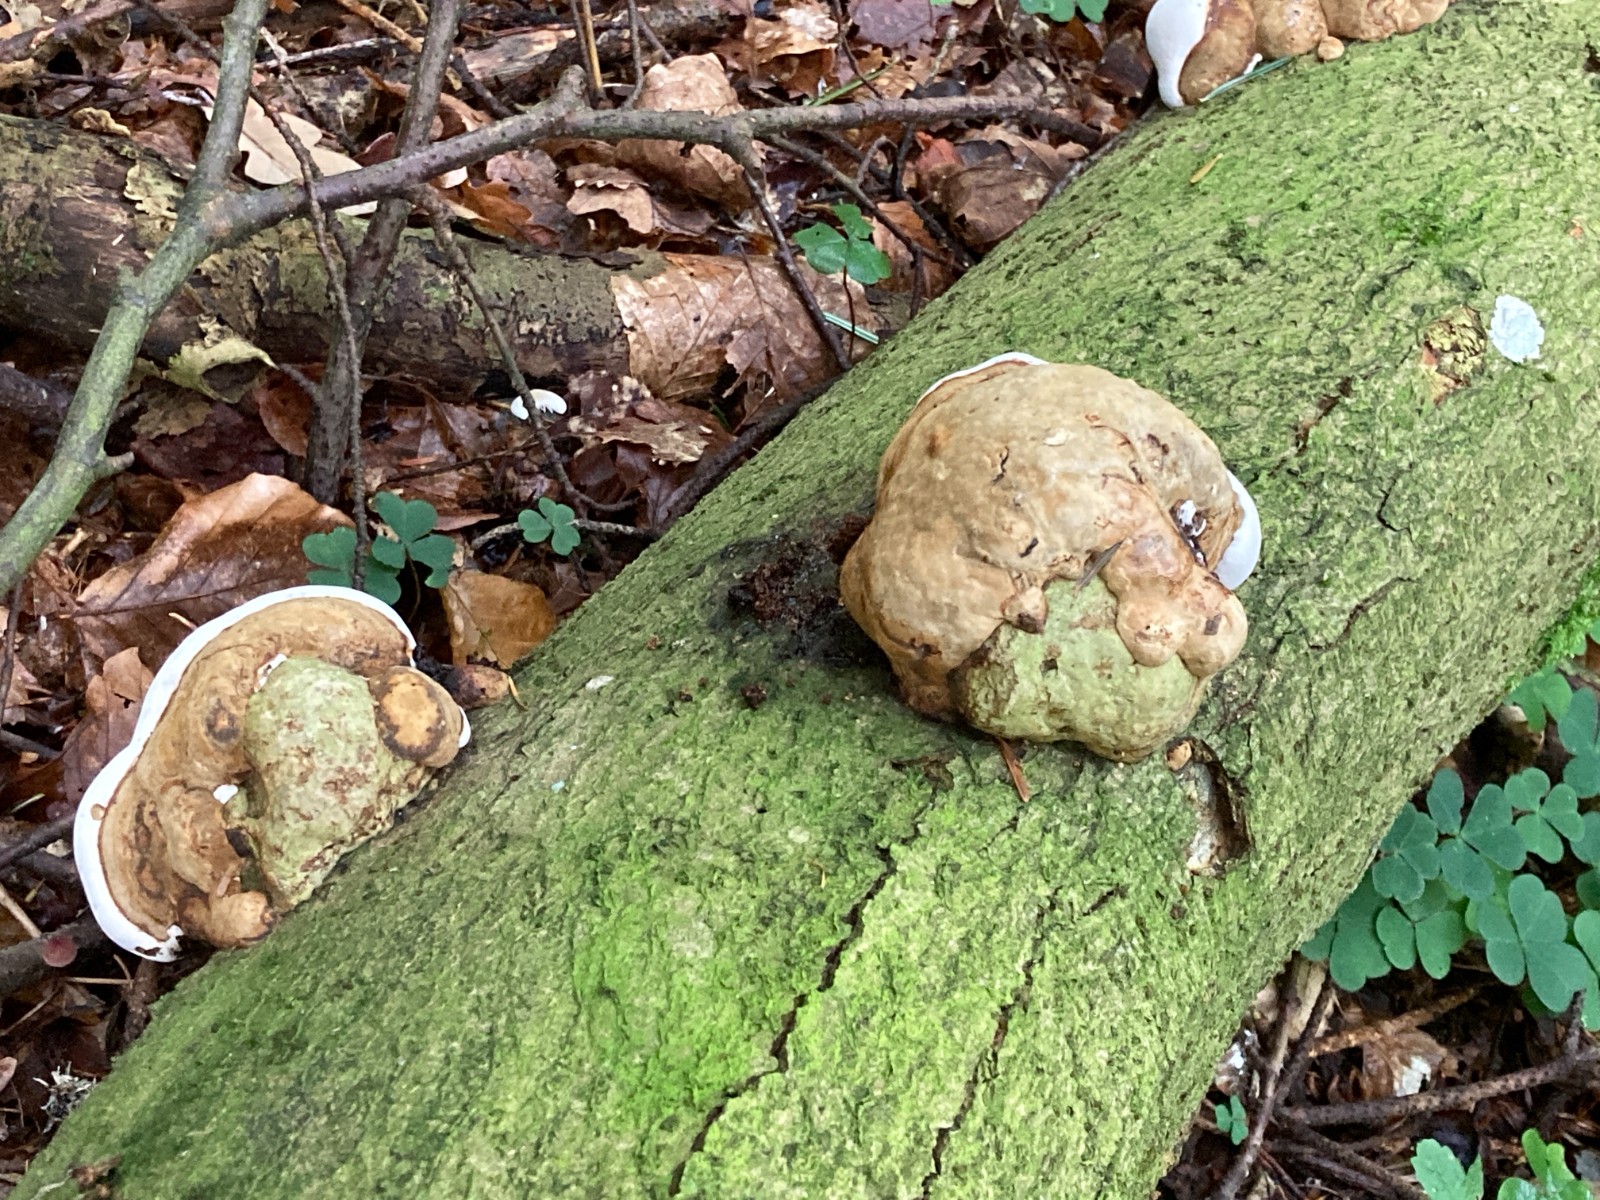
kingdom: Fungi
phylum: Basidiomycota
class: Agaricomycetes
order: Polyporales
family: Polyporaceae
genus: Fomes
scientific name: Fomes fomentarius
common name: tøndersvamp
